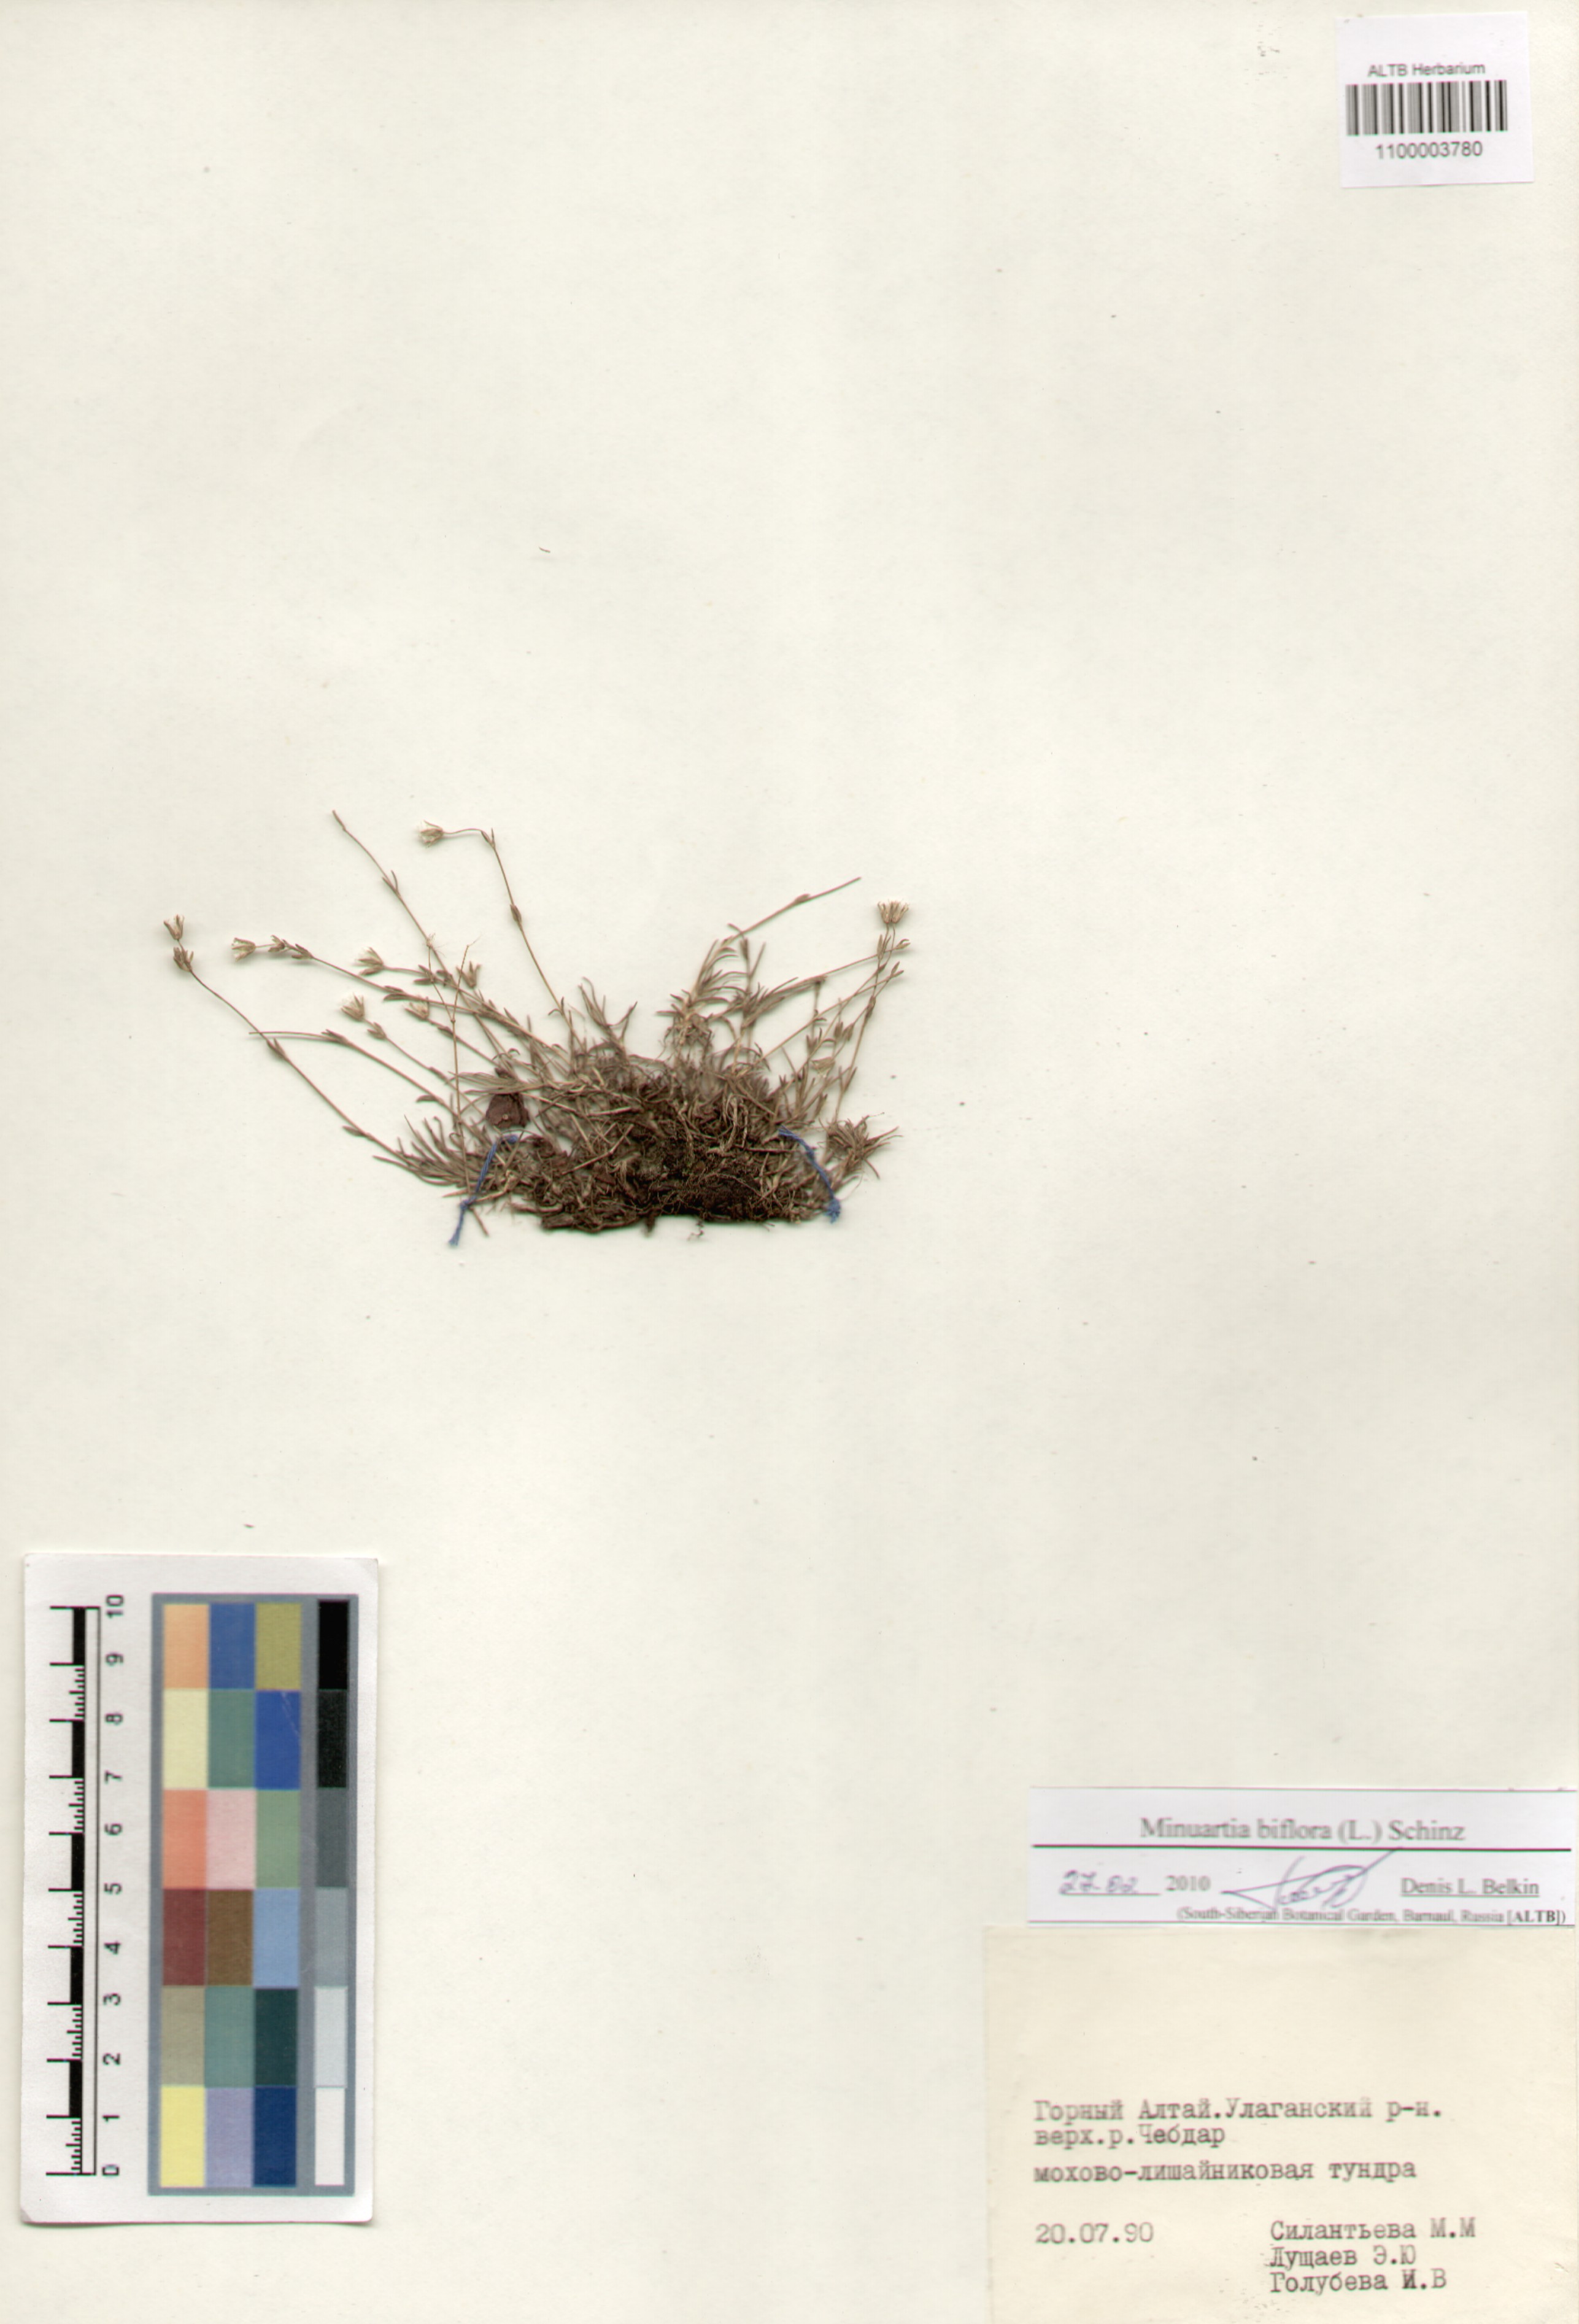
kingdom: Plantae
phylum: Tracheophyta
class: Magnoliopsida
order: Caryophyllales
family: Caryophyllaceae
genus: Cherleria
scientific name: Cherleria biflora
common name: Mountain sandwort
